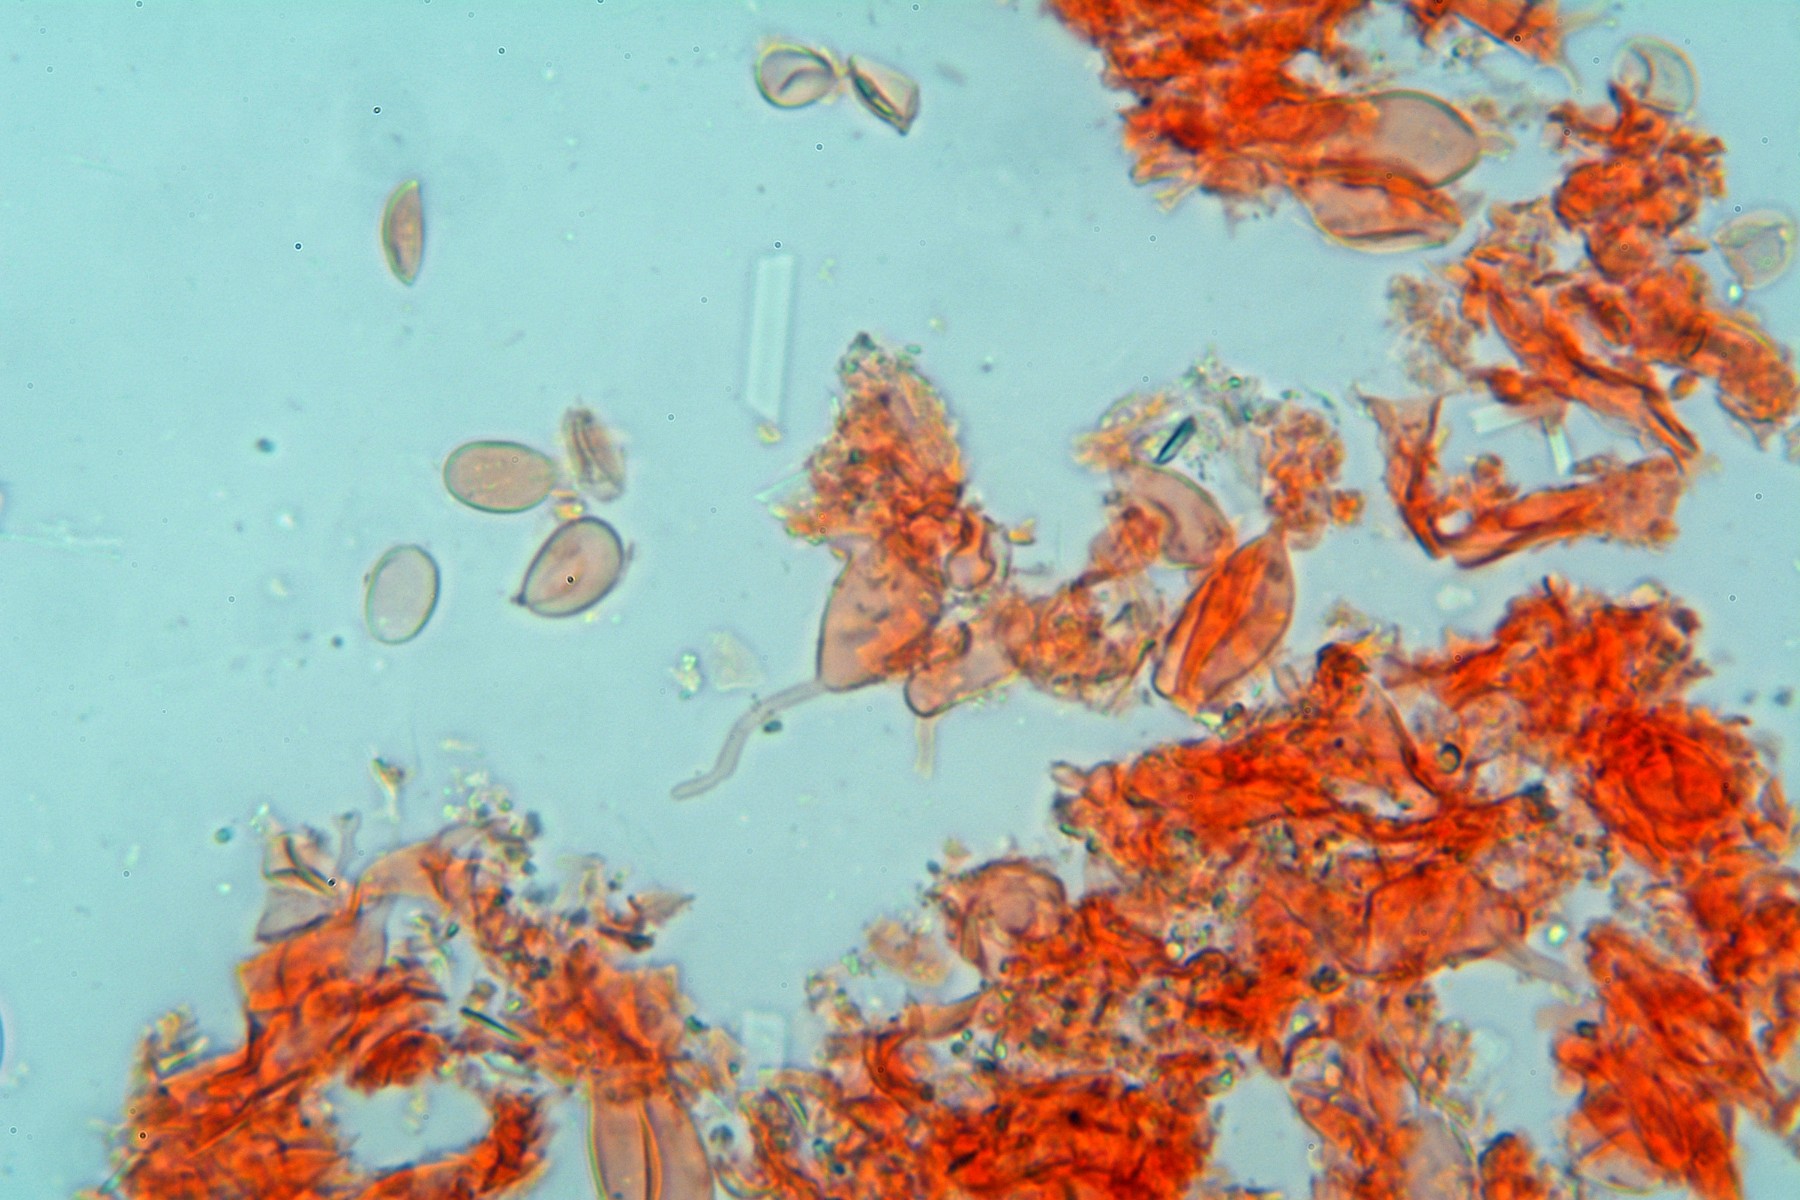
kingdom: Fungi
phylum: Basidiomycota
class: Agaricomycetes
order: Agaricales
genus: Dendrothele
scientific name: Dendrothele acerina
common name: navr-kalkplet
